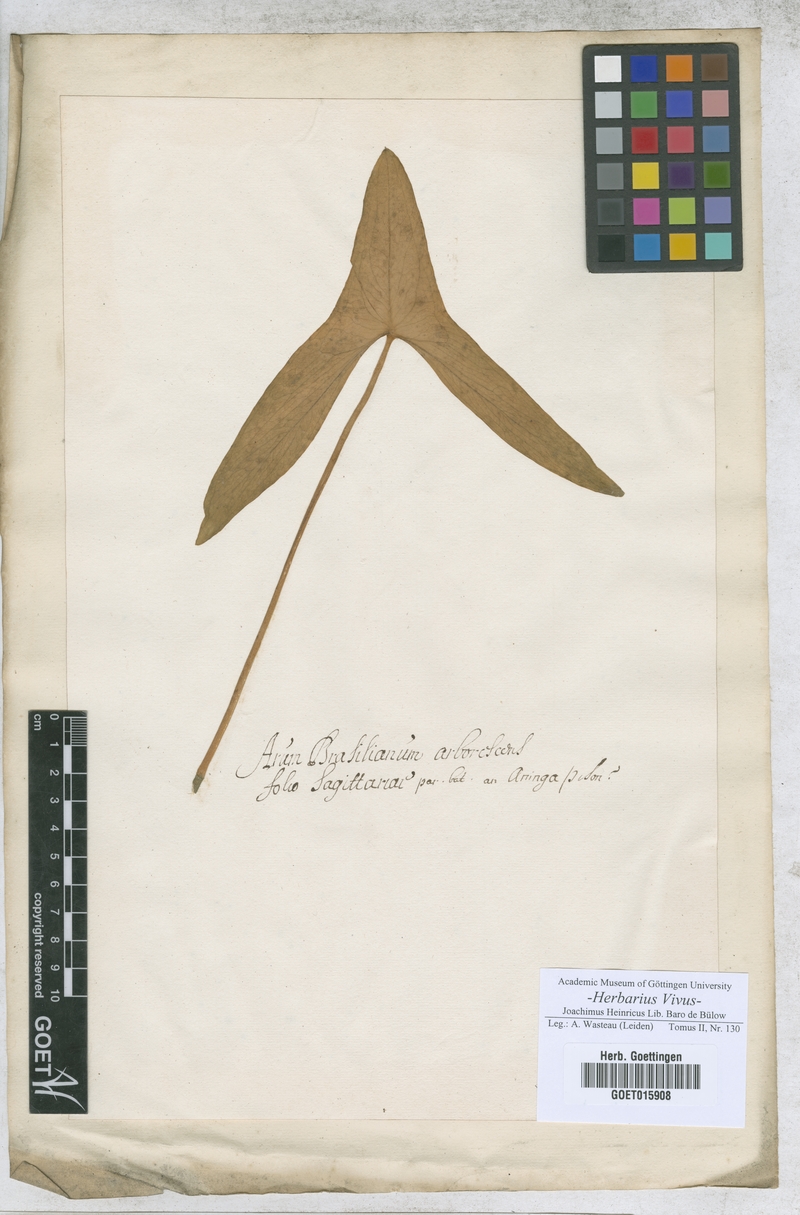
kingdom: Plantae
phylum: Tracheophyta
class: Liliopsida
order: Alismatales
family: Araceae
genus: Arum
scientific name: Arum
